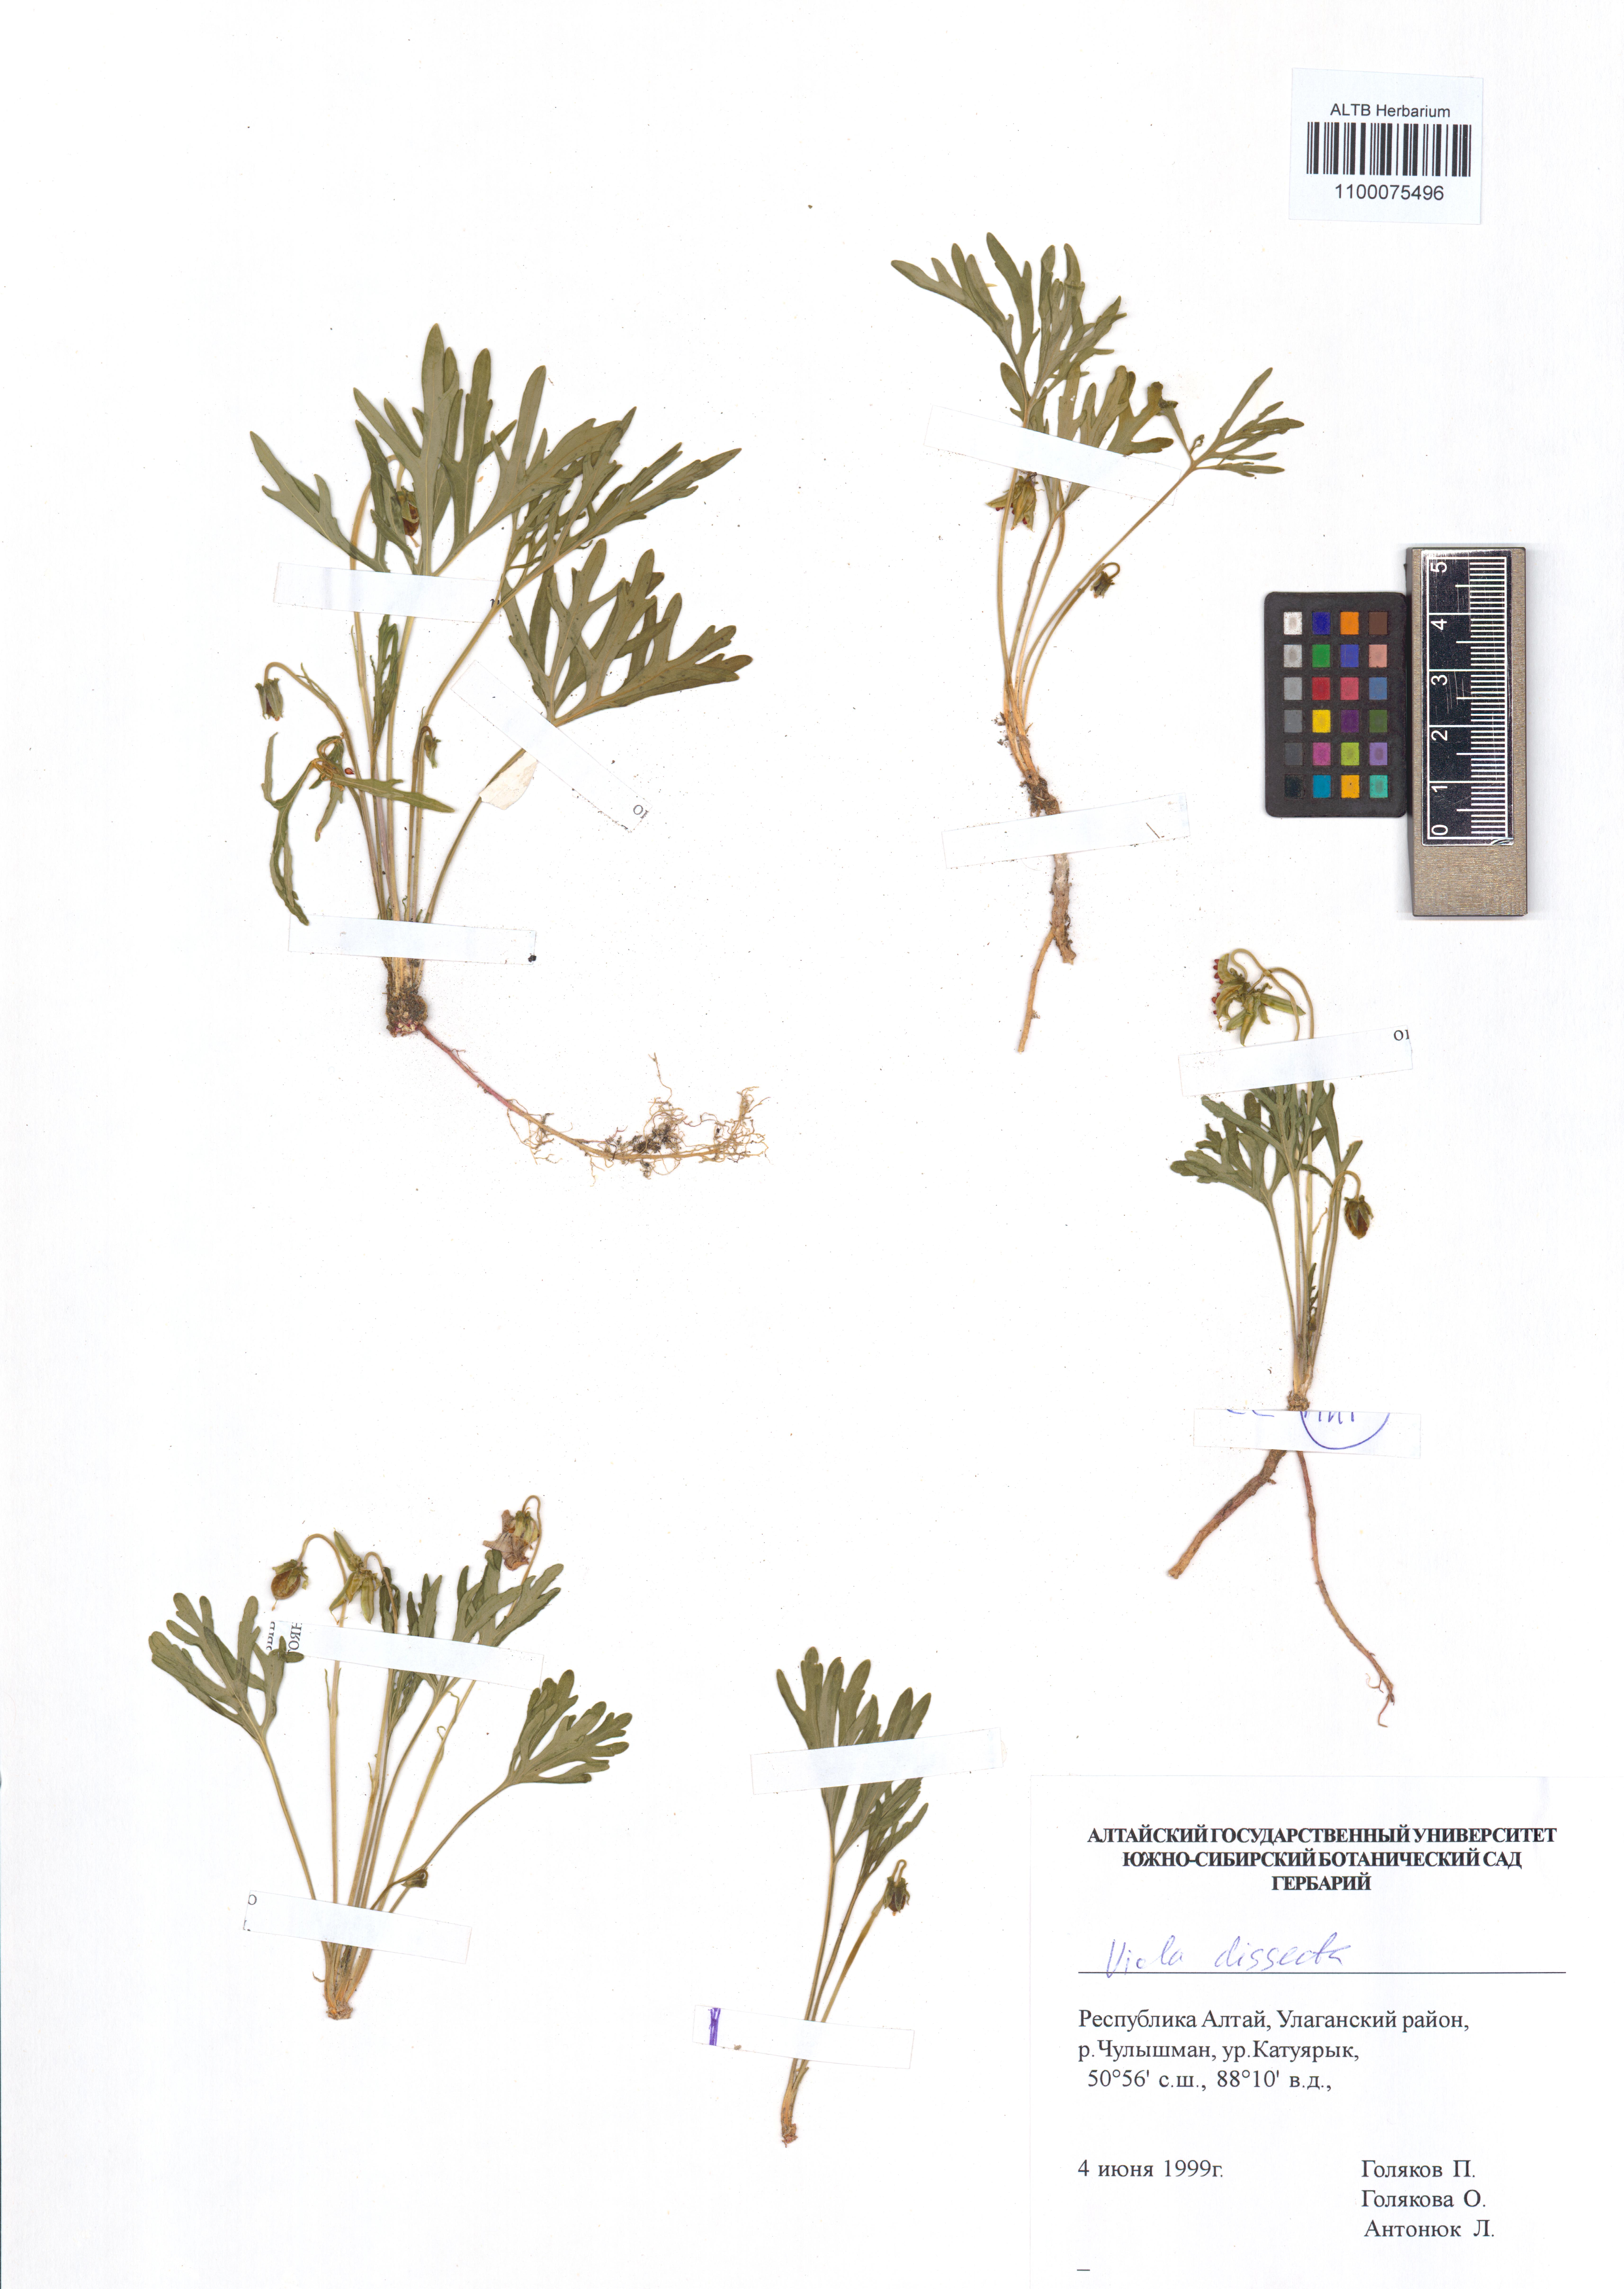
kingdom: Plantae
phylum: Tracheophyta
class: Magnoliopsida
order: Malpighiales
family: Violaceae
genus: Viola
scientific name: Viola multifida
